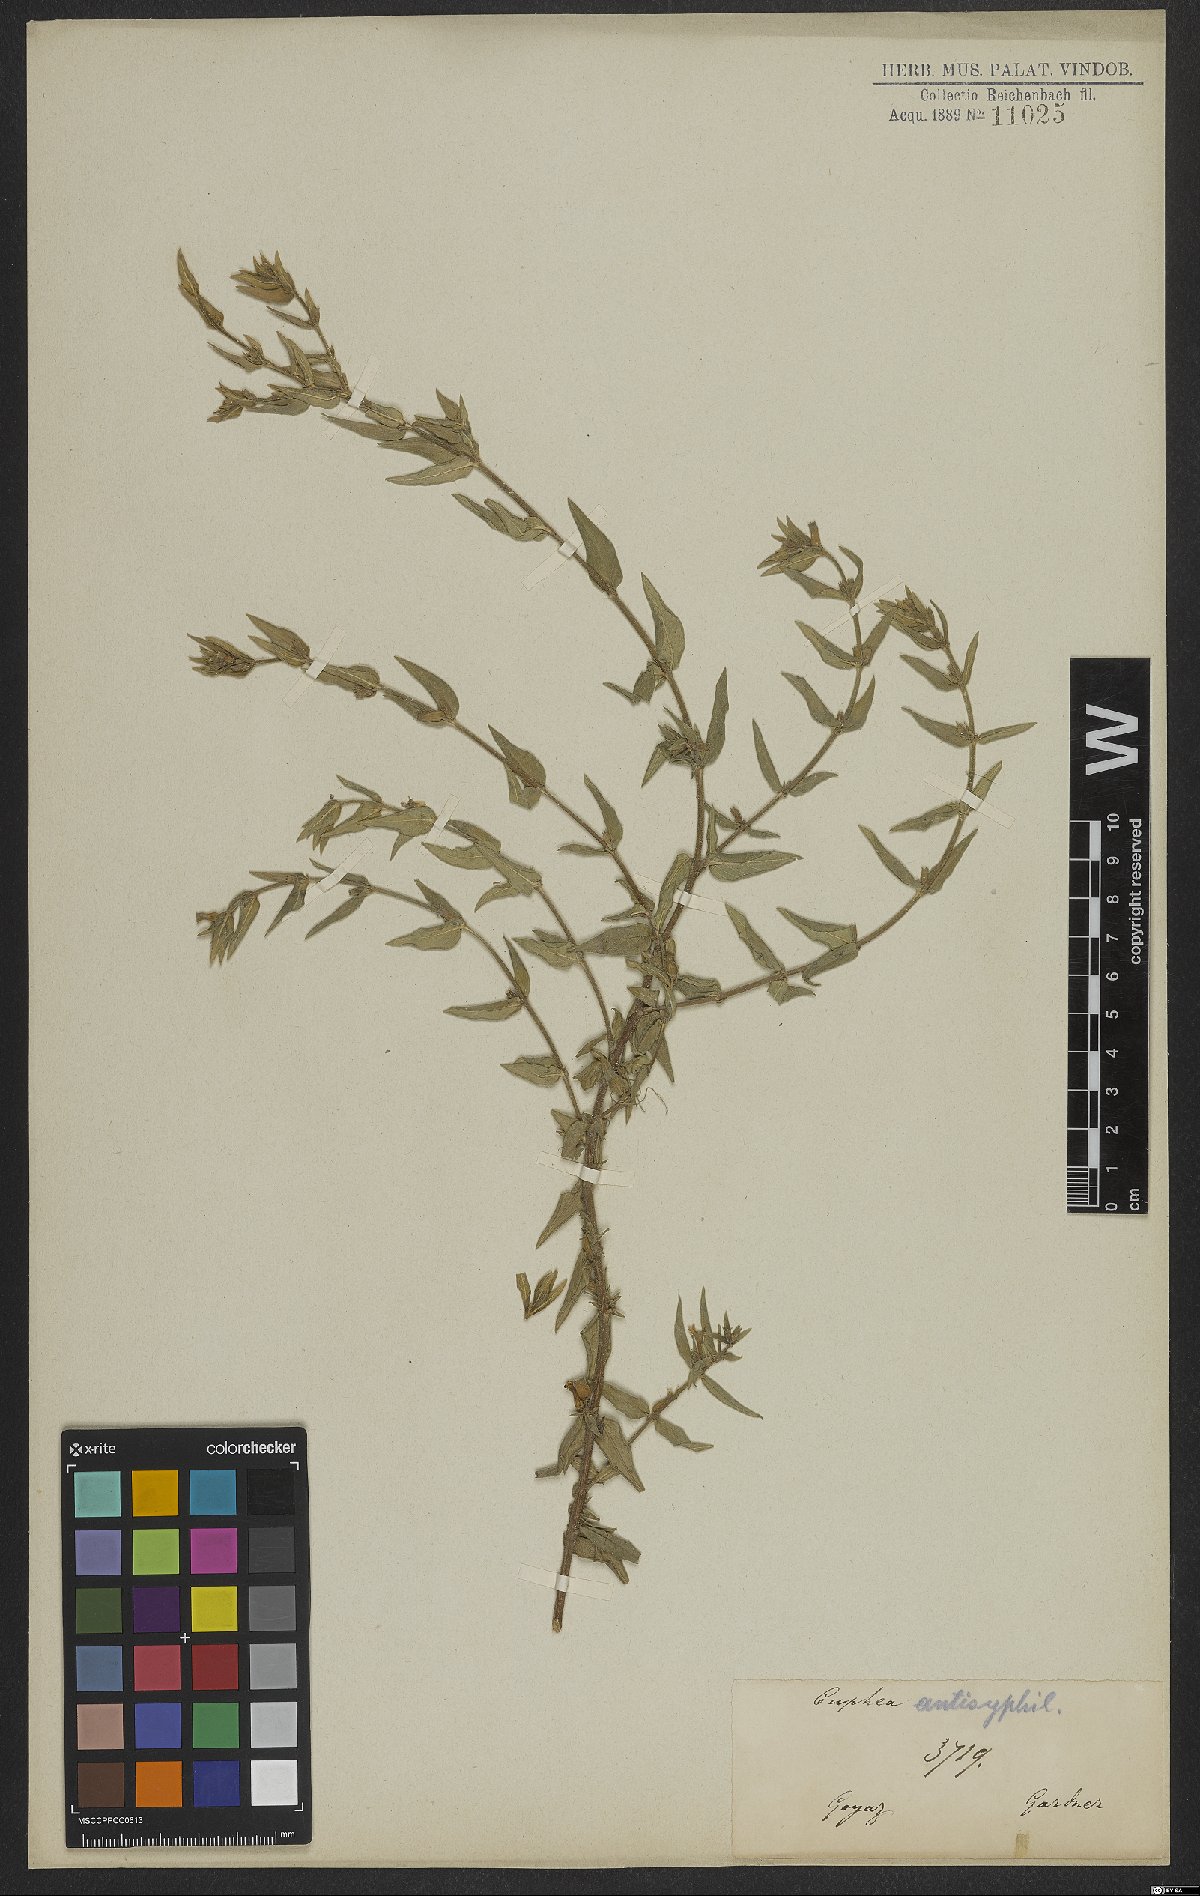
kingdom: Plantae
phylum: Tracheophyta
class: Magnoliopsida
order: Myrtales
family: Lythraceae
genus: Cuphea
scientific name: Cuphea antisyphilitica
